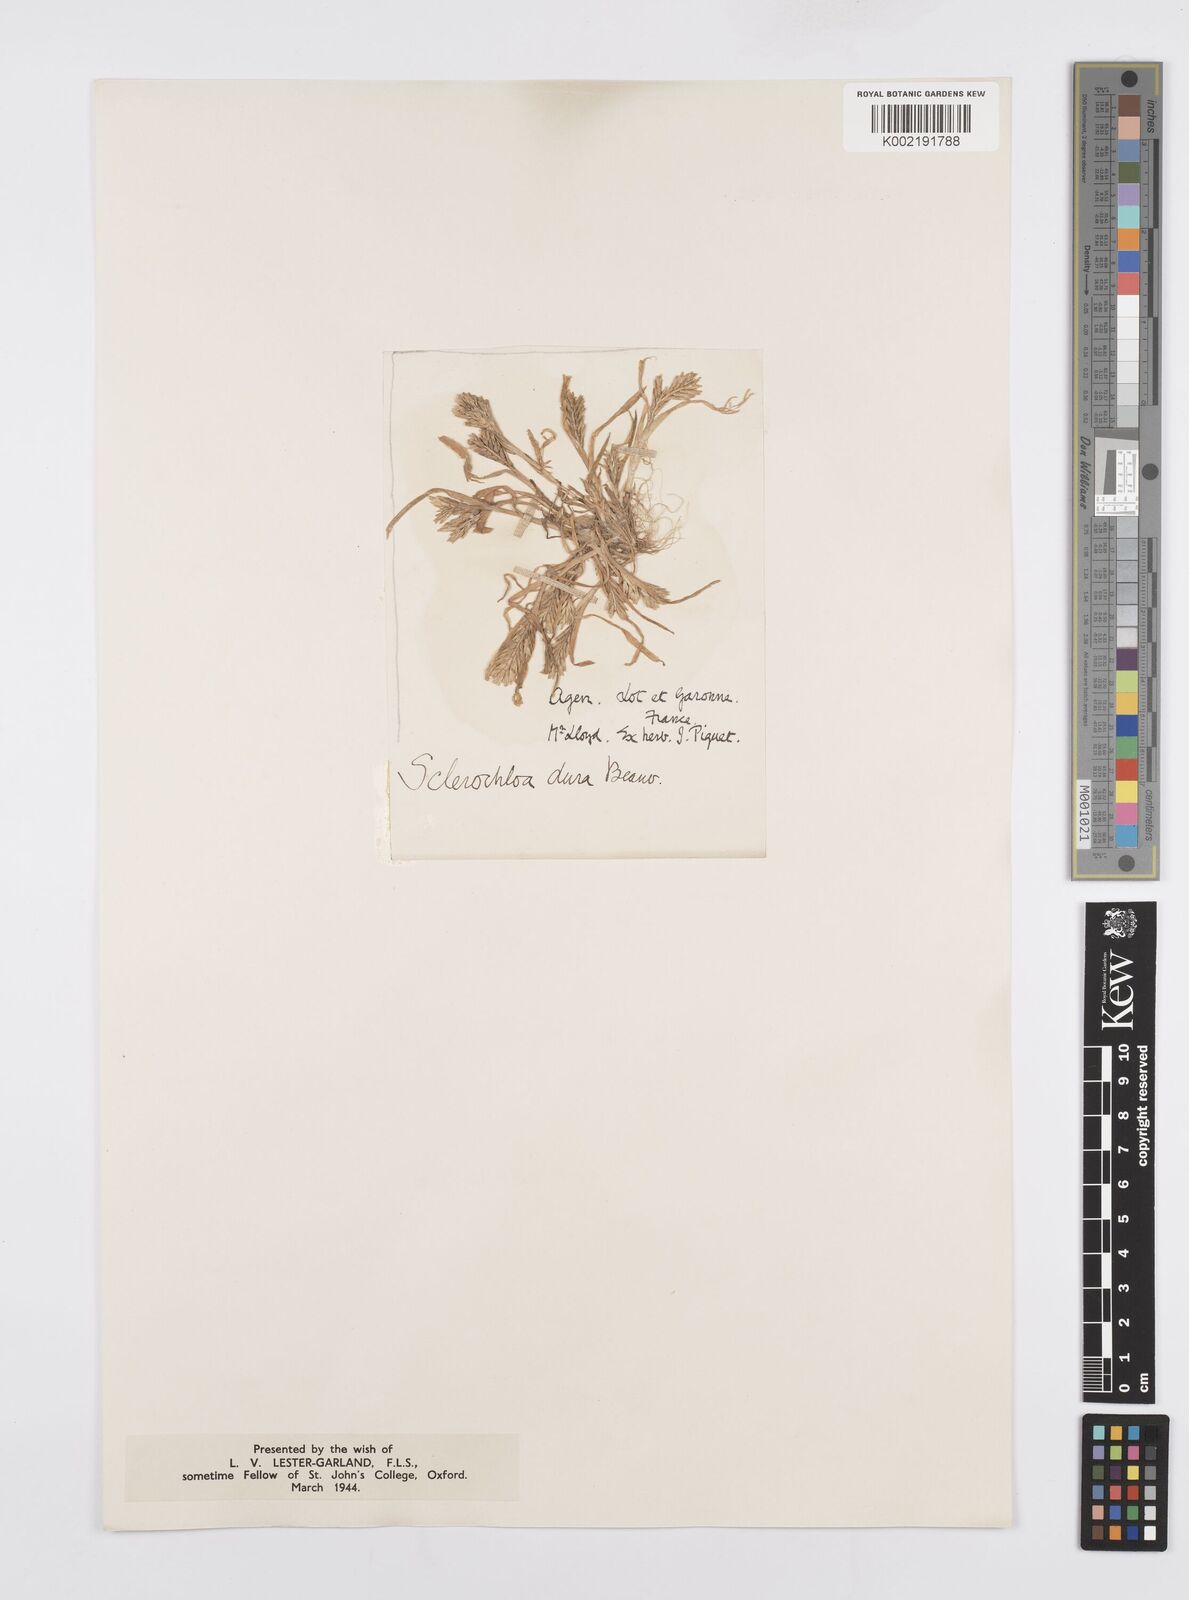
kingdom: Plantae
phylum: Tracheophyta
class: Liliopsida
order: Poales
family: Poaceae
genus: Sclerochloa
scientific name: Sclerochloa dura
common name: Common hardgrass
